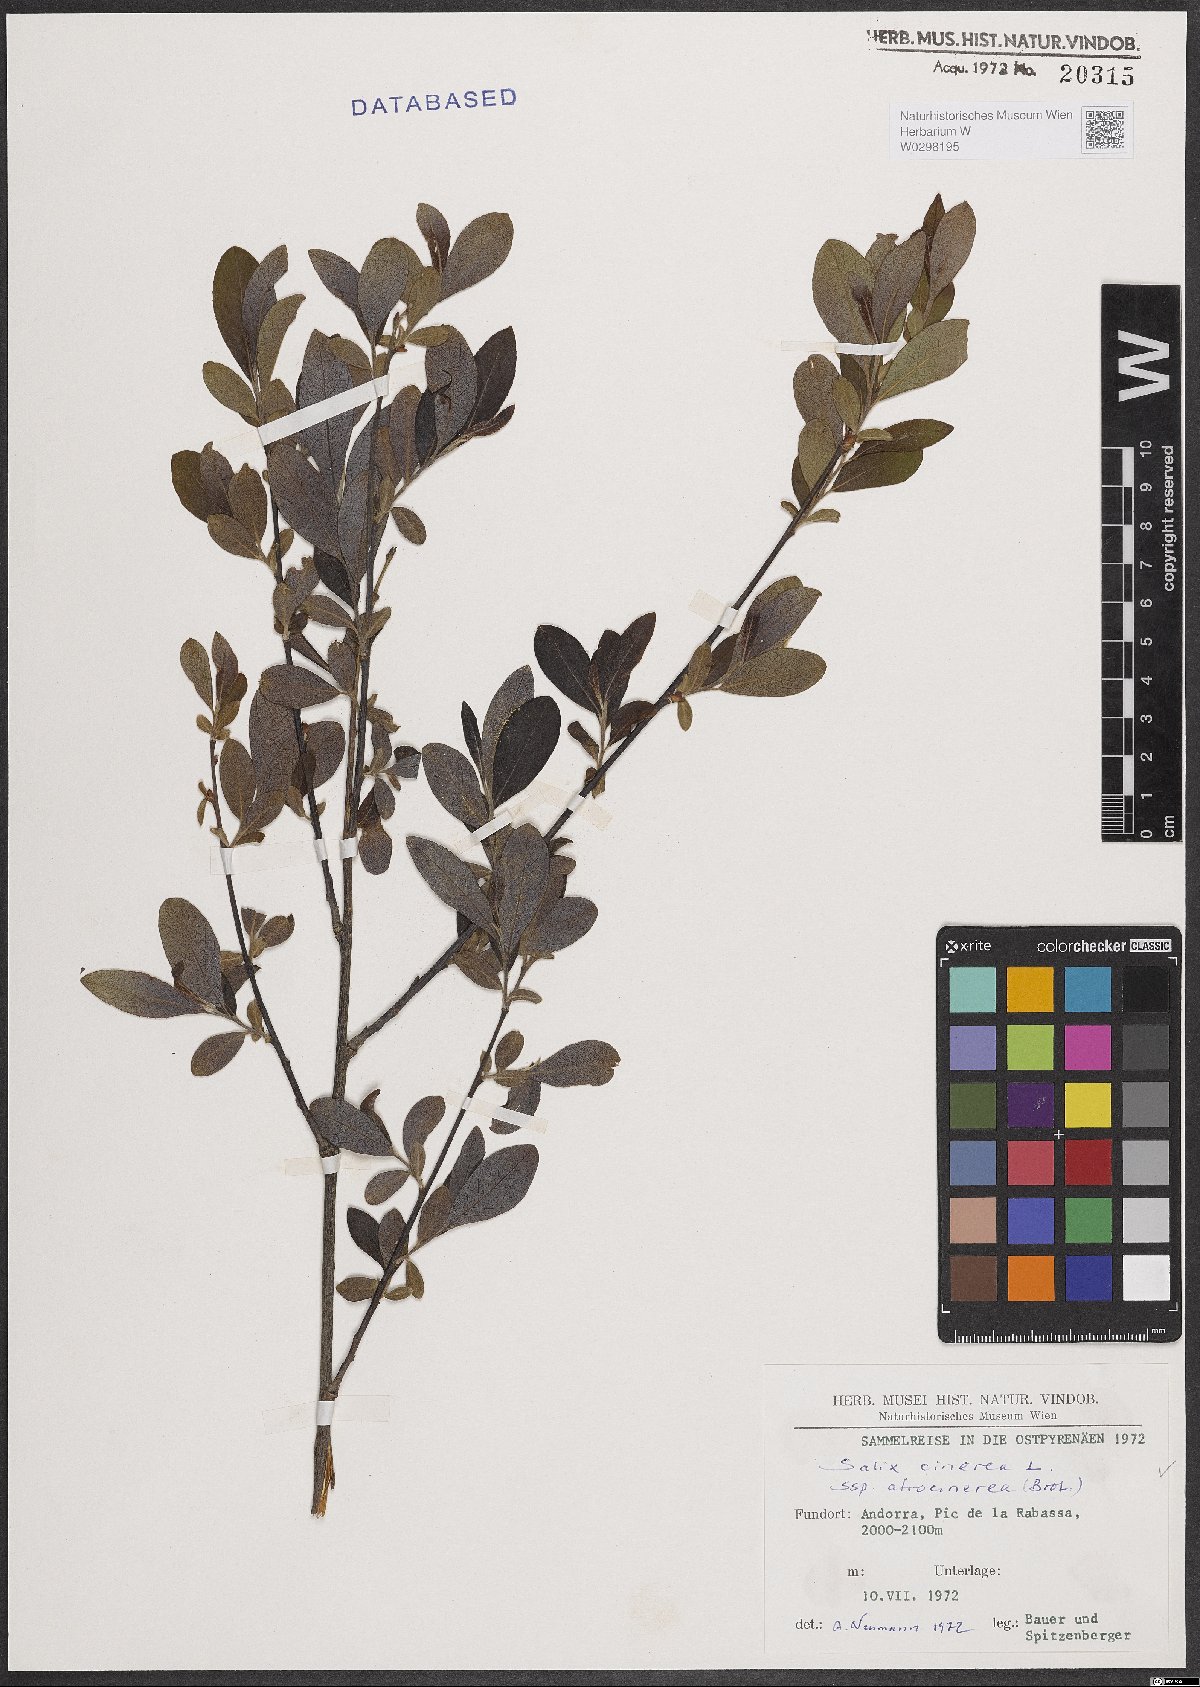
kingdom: Plantae
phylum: Tracheophyta
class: Magnoliopsida
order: Malpighiales
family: Salicaceae
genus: Salix
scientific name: Salix atrocinerea
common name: Rusty willow
